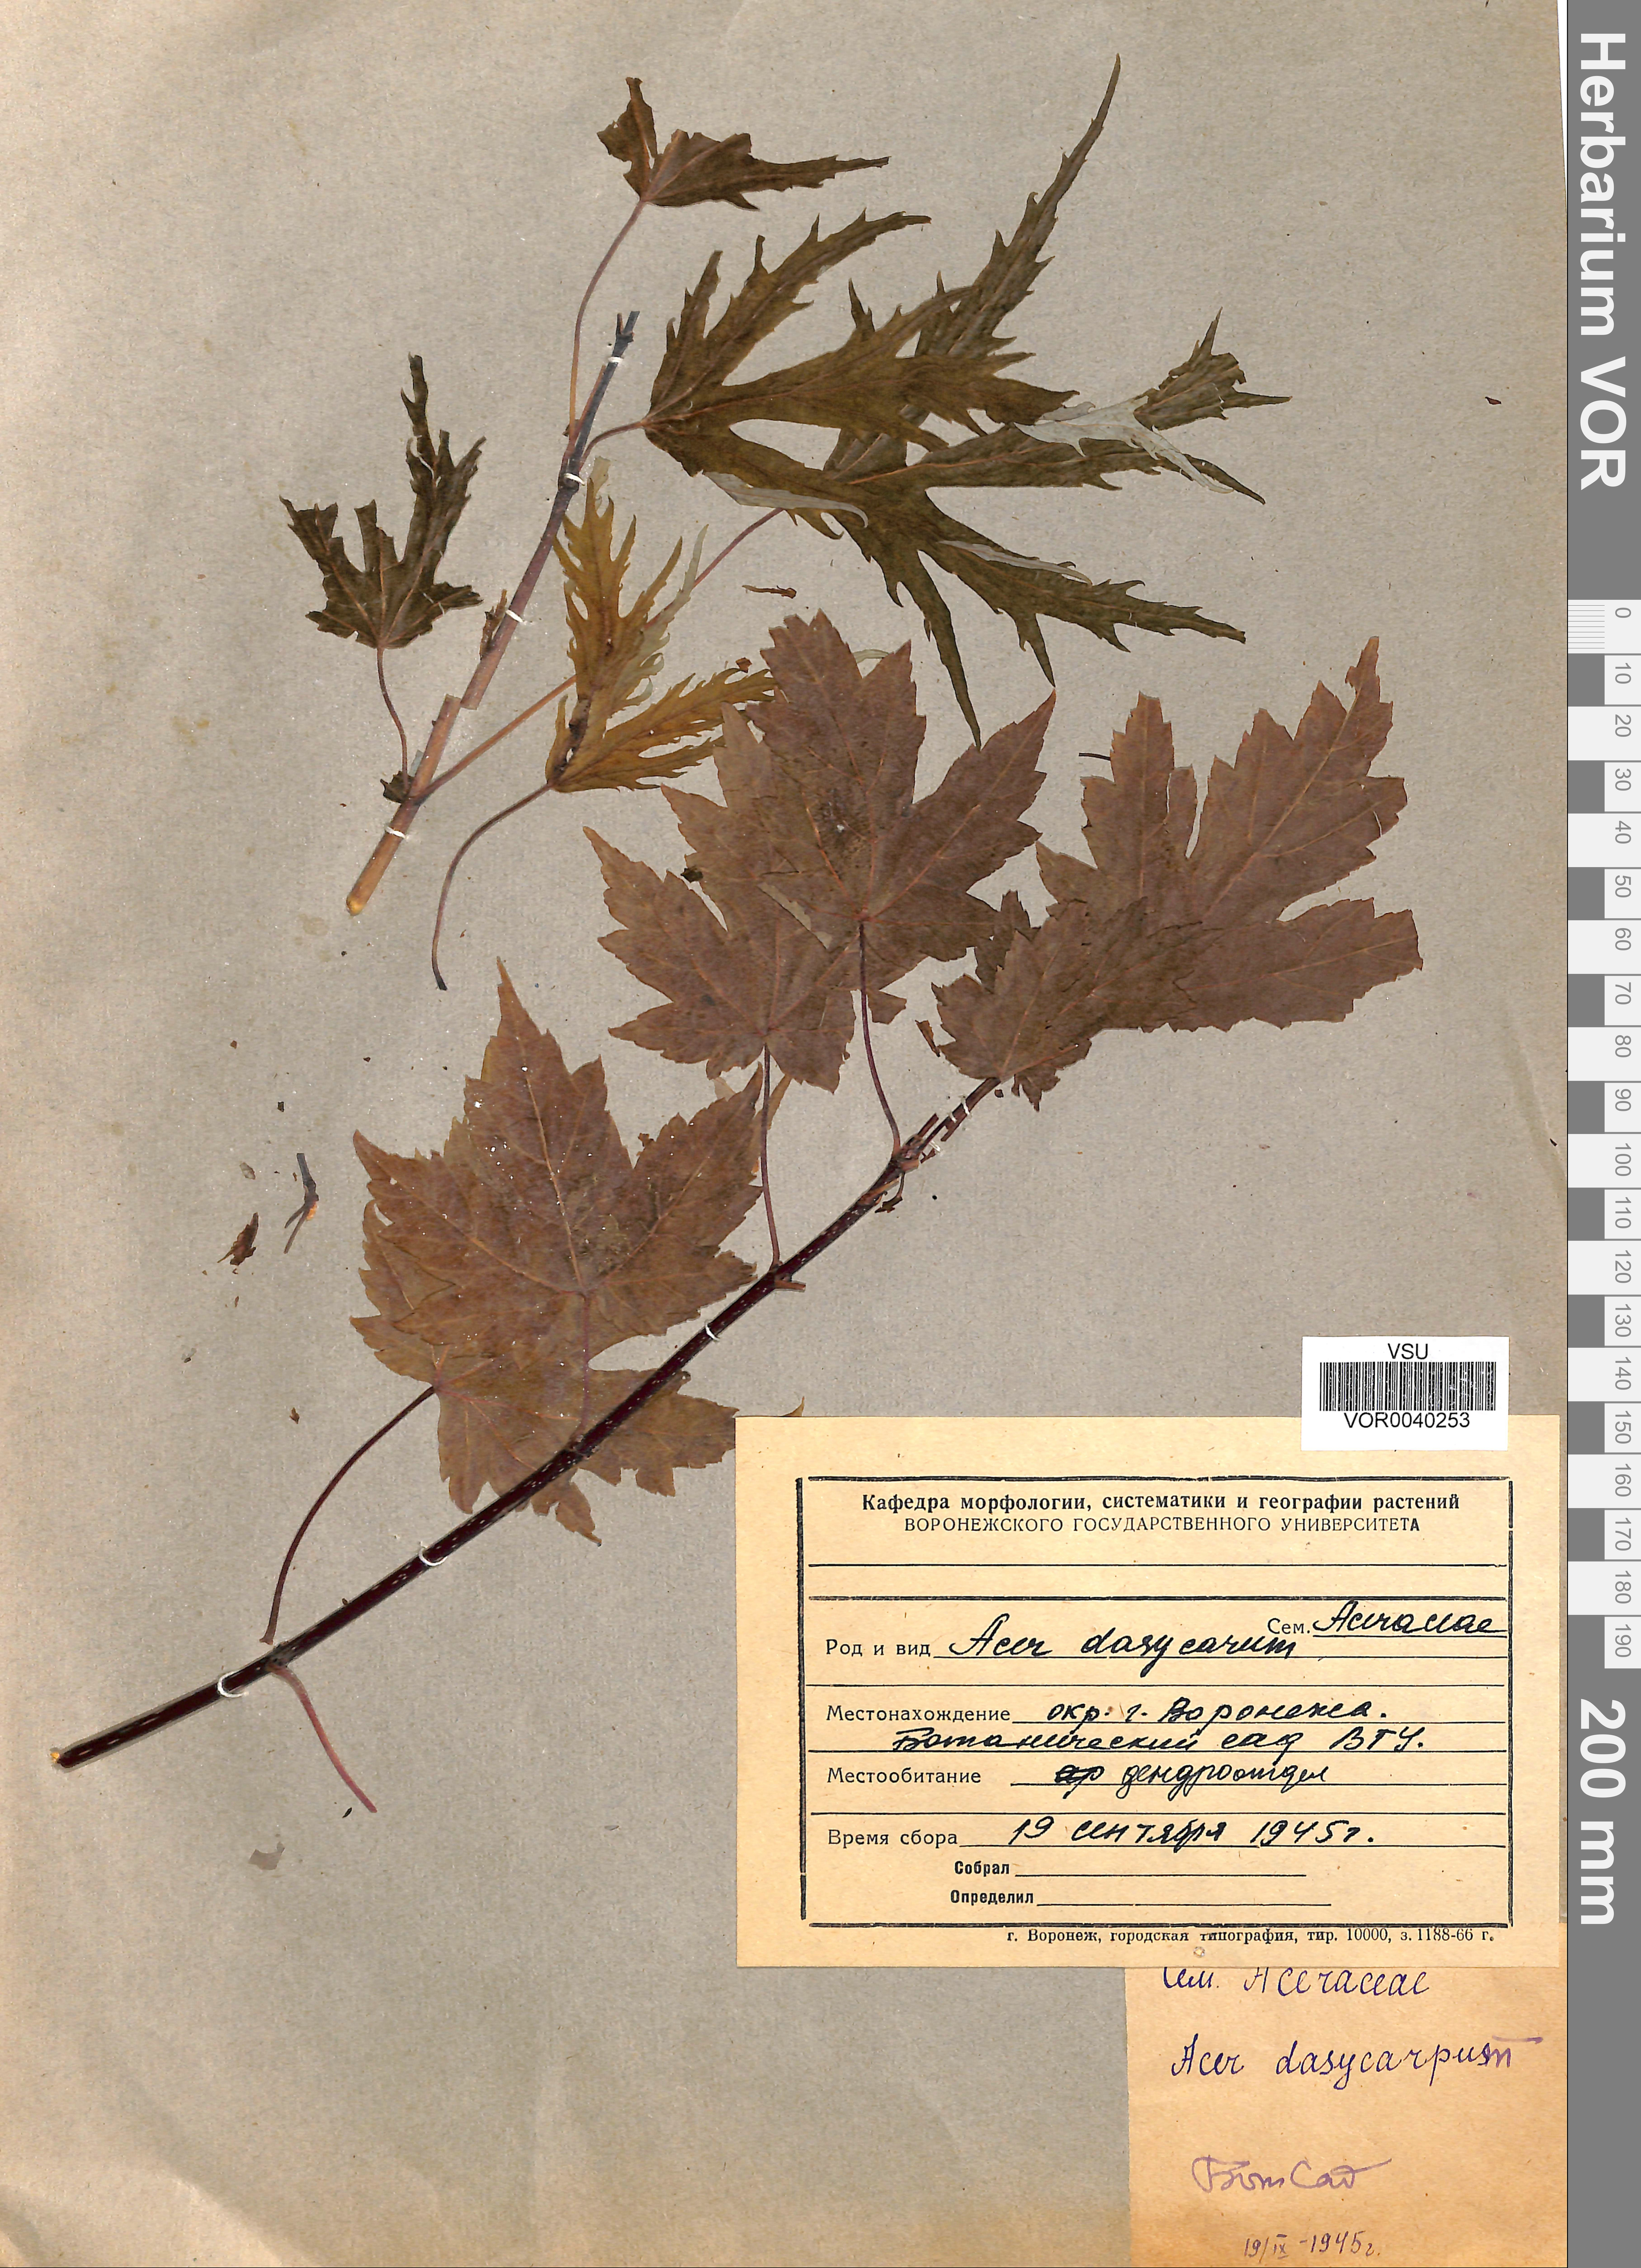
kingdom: Plantae
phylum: Tracheophyta
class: Magnoliopsida
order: Sapindales
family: Sapindaceae
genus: Acer
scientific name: Acer saccharinum
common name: Silver maple
